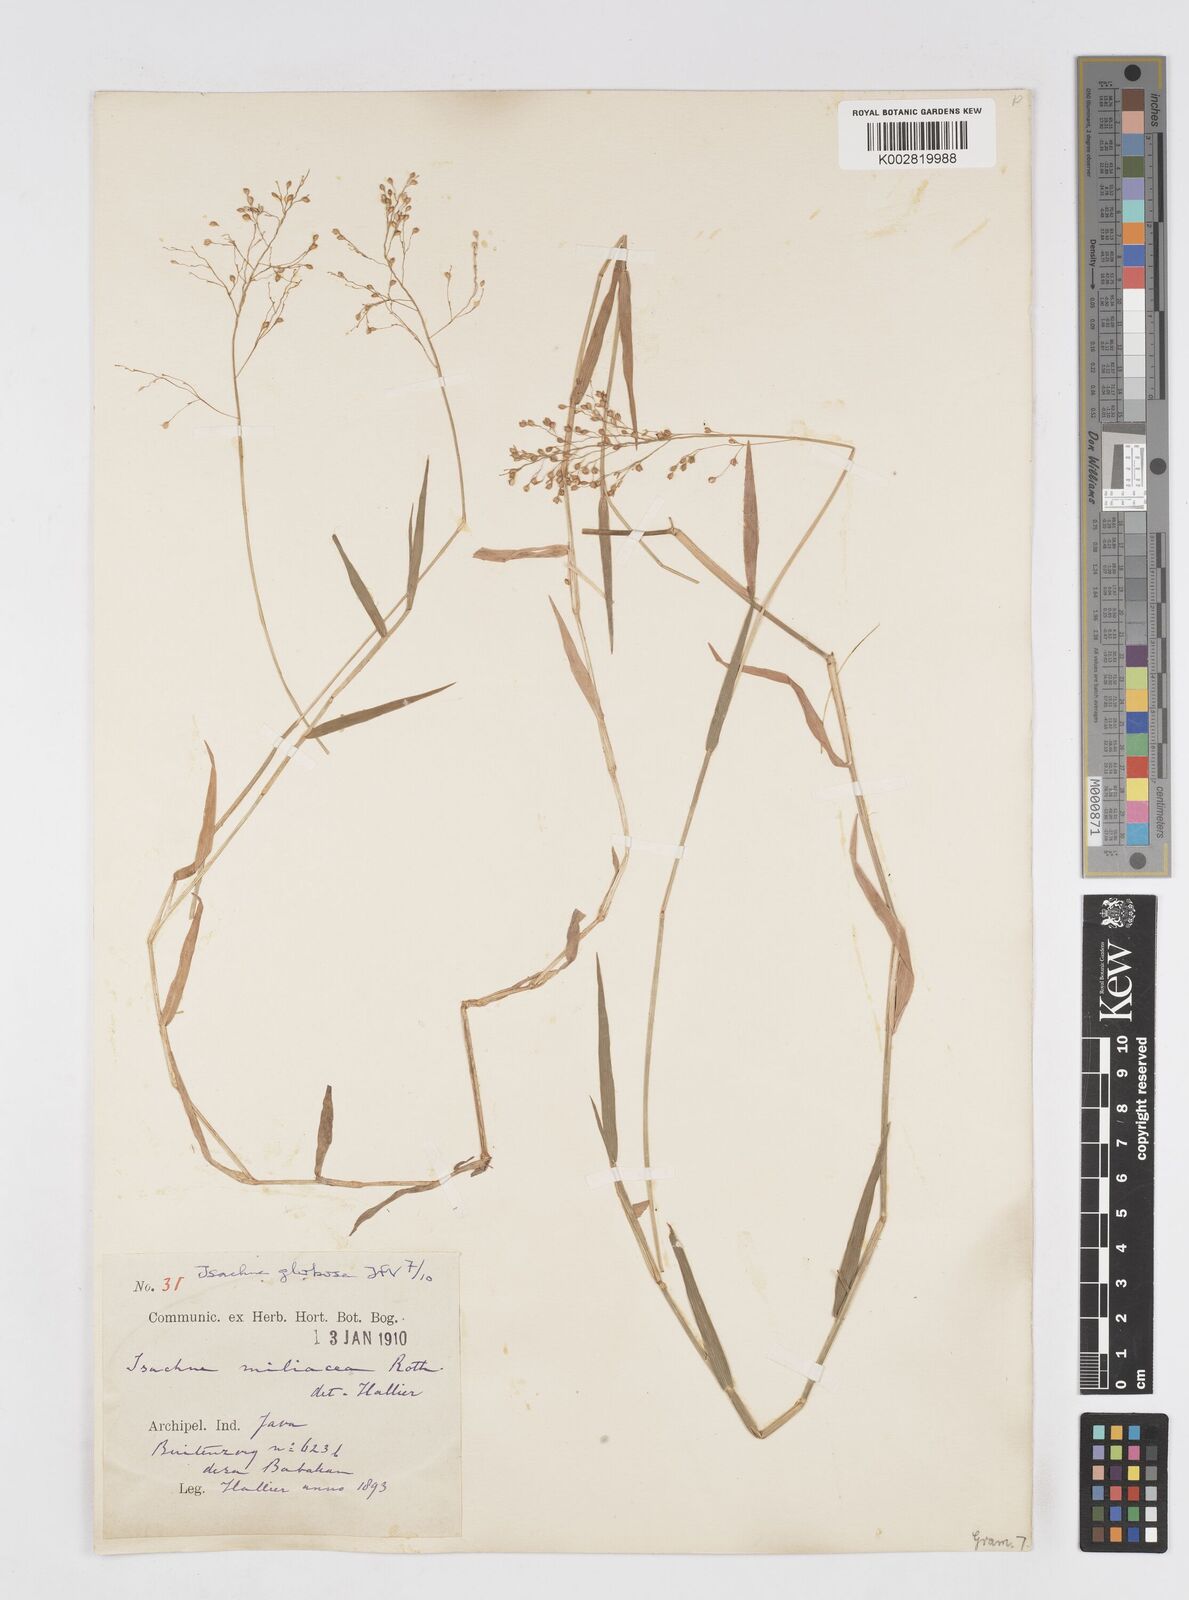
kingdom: Plantae
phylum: Tracheophyta
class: Liliopsida
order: Poales
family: Poaceae
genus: Isachne
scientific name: Isachne globosa
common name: Swamp millet
